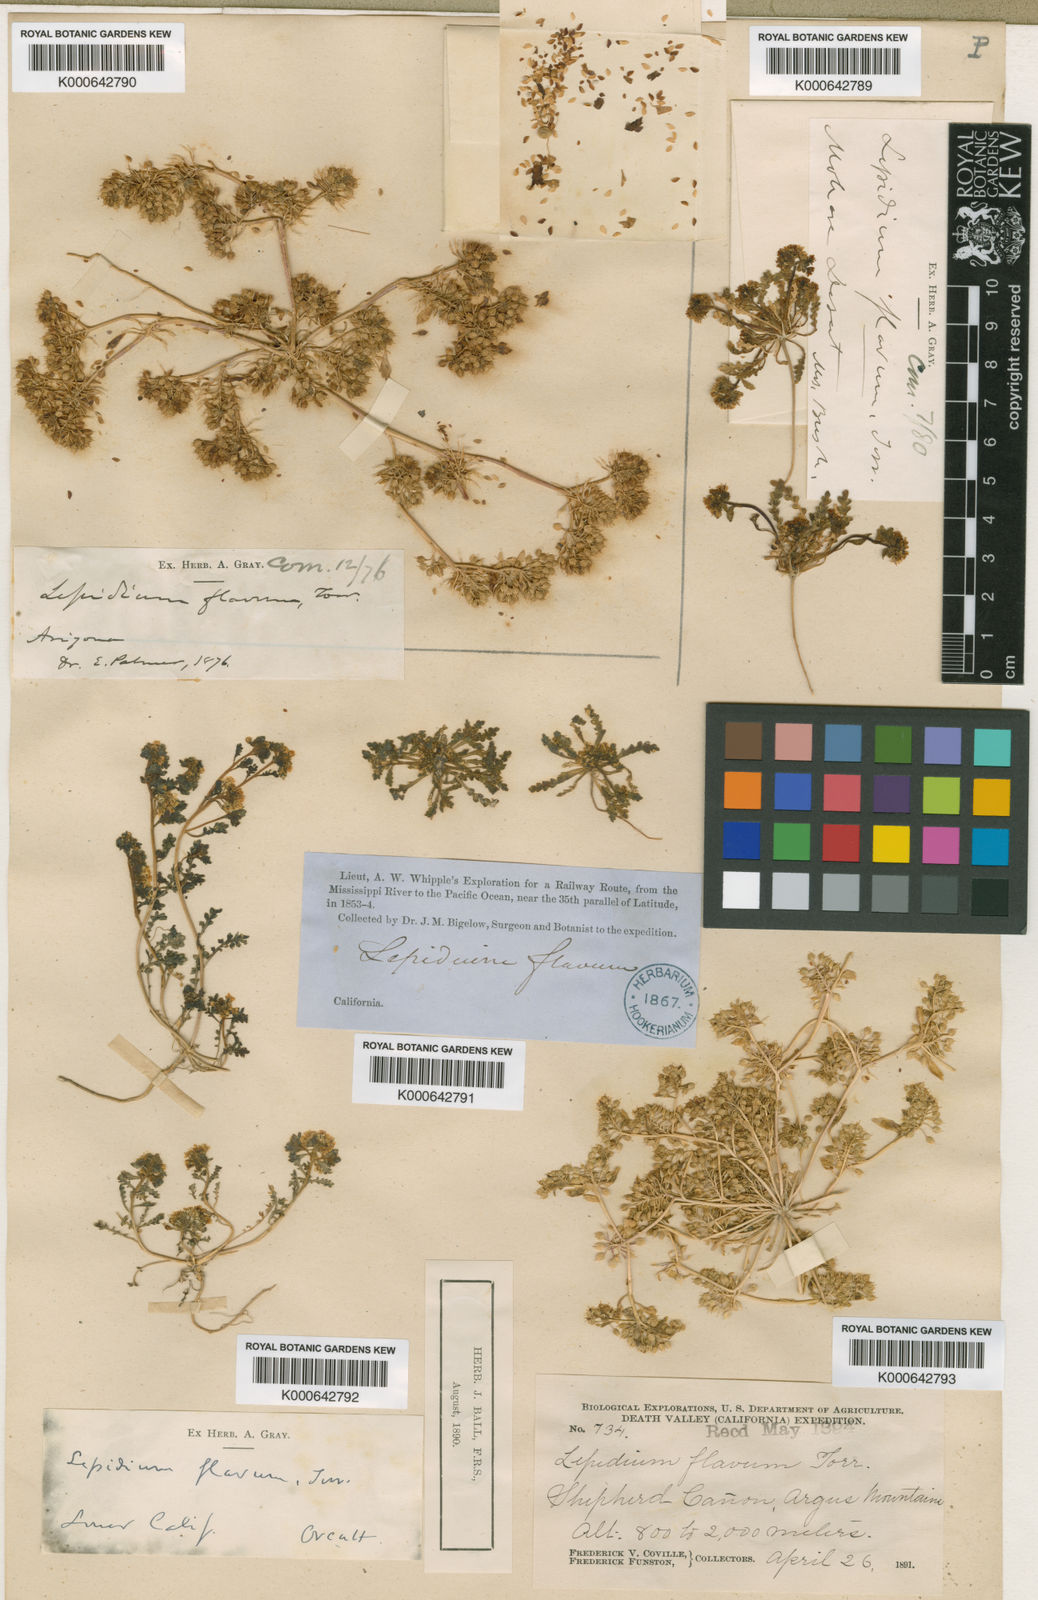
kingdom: Plantae
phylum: Tracheophyta
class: Magnoliopsida
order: Brassicales
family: Brassicaceae
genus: Lepidium
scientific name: Lepidium flavum
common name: Yellow pepperwort
